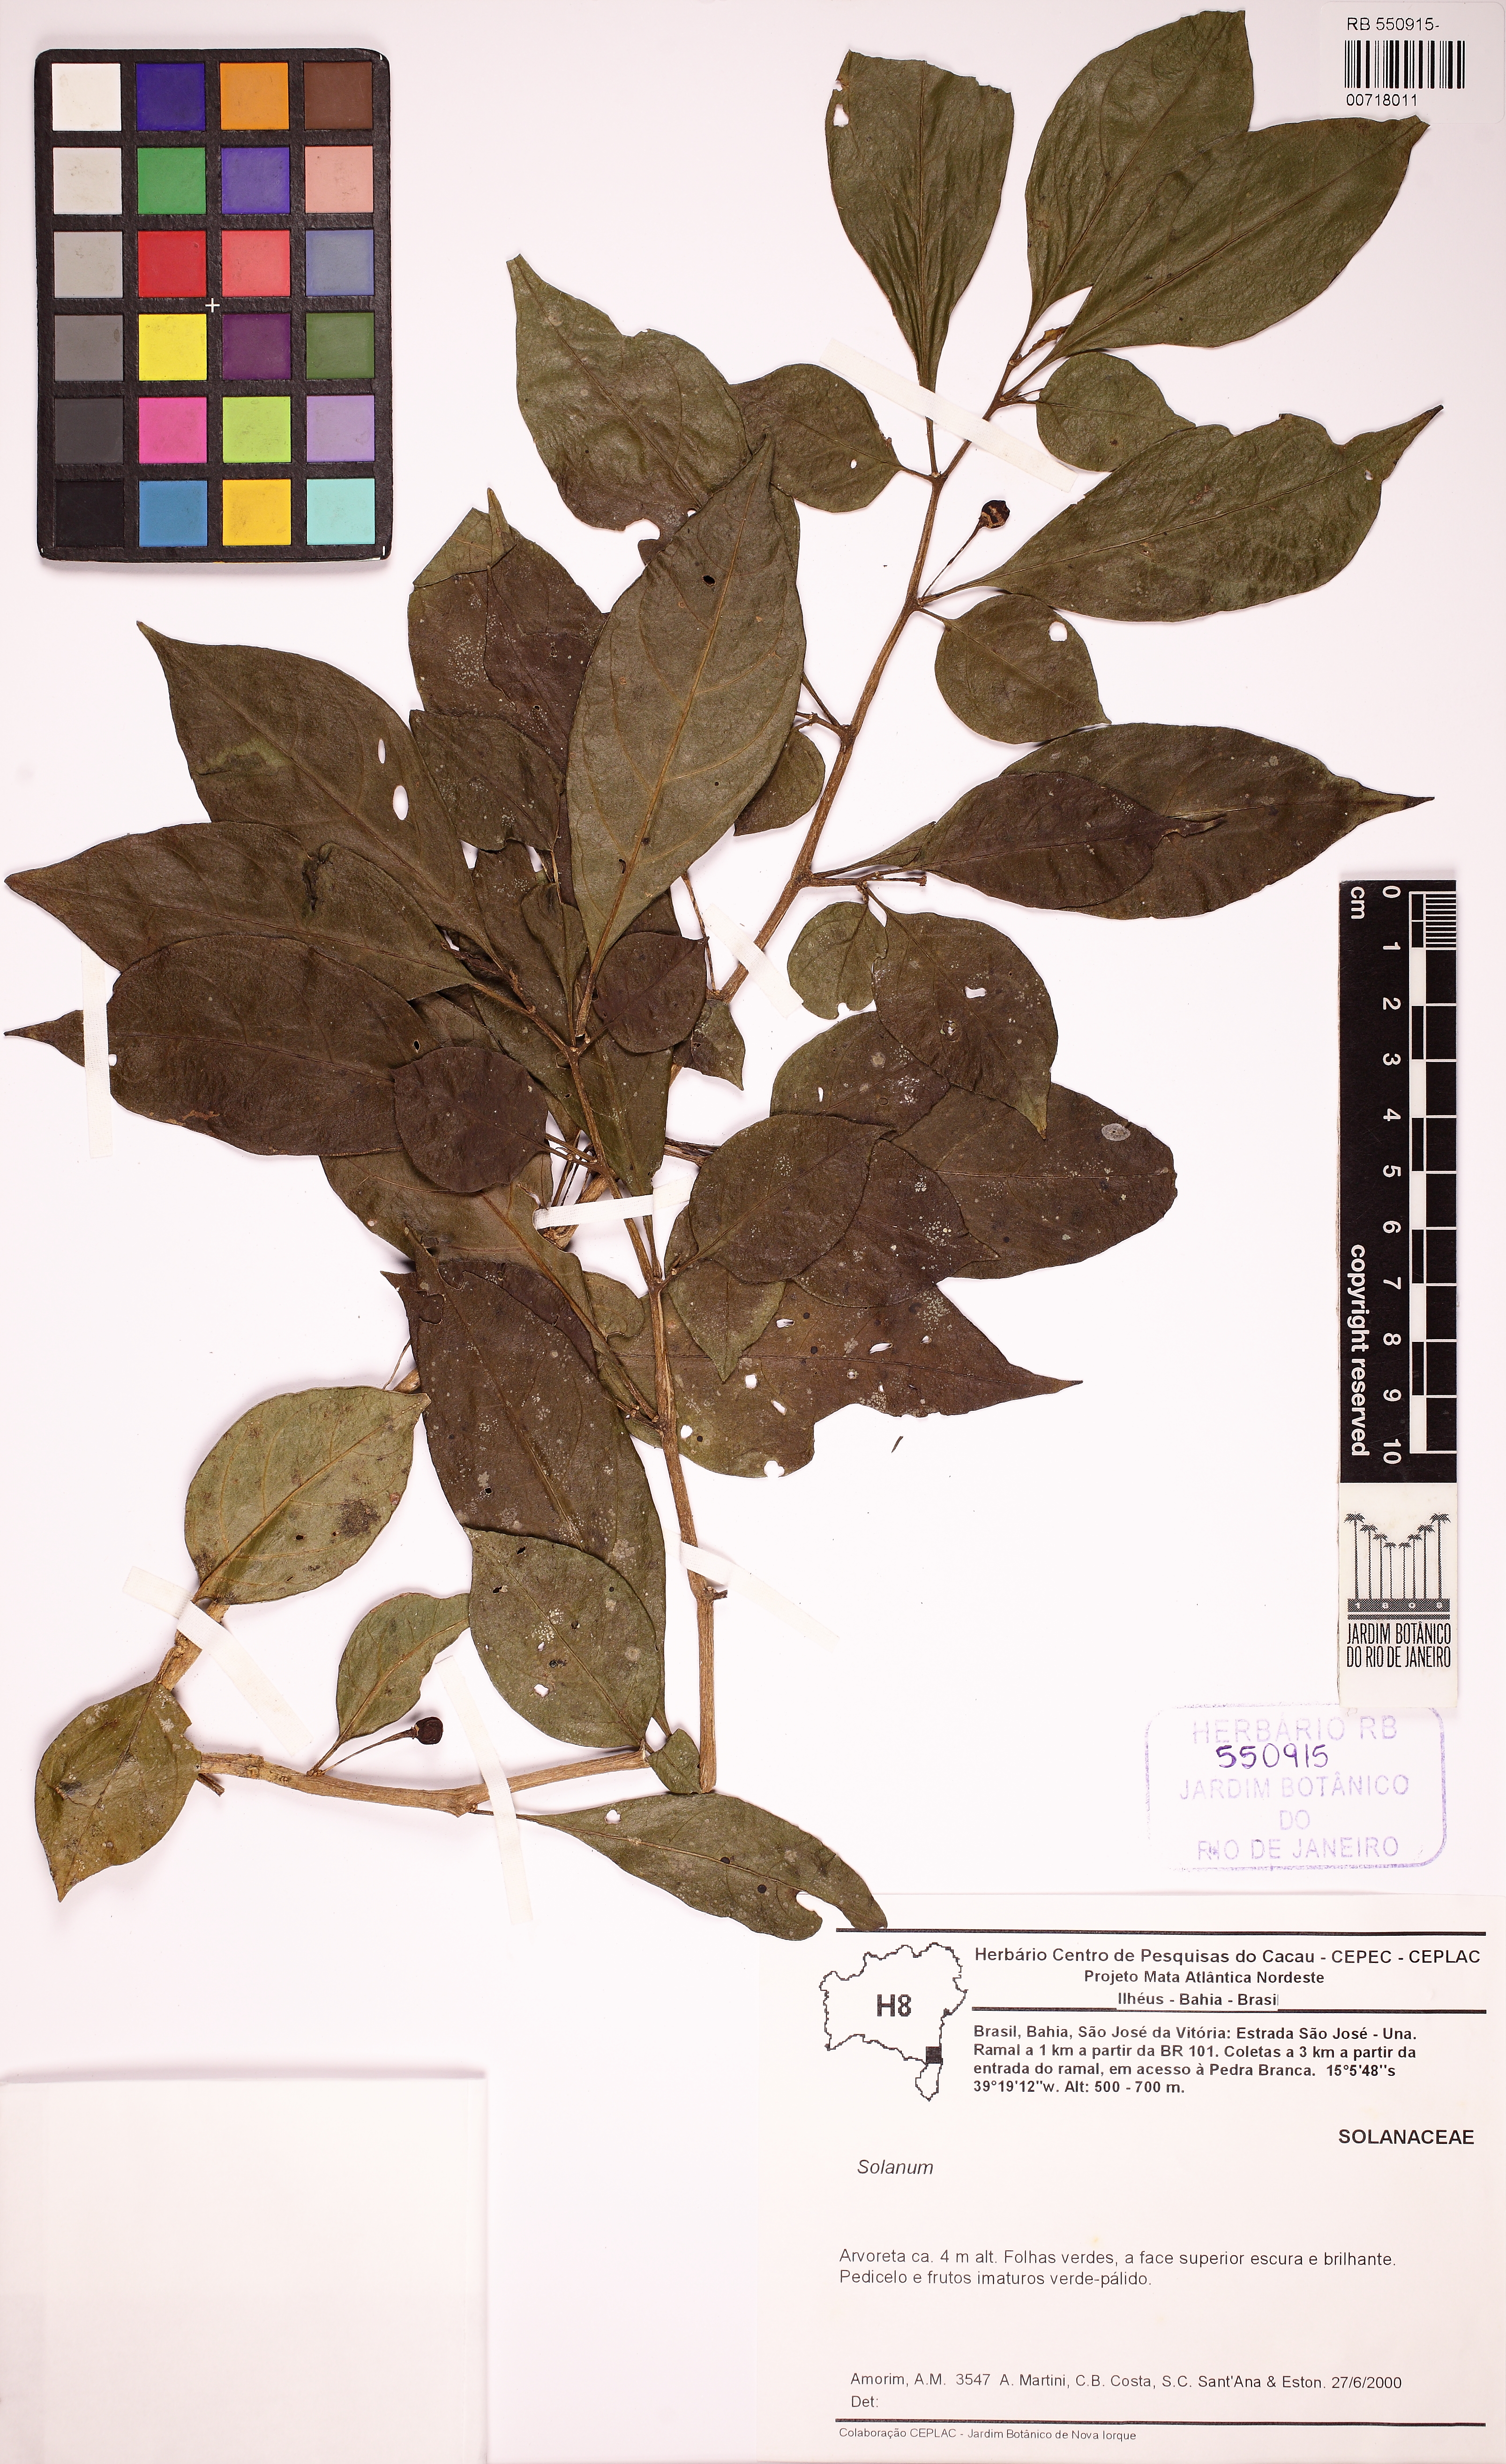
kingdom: Plantae
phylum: Tracheophyta
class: Magnoliopsida
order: Solanales
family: Solanaceae
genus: Athenaea
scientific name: Athenaea fasciculata
